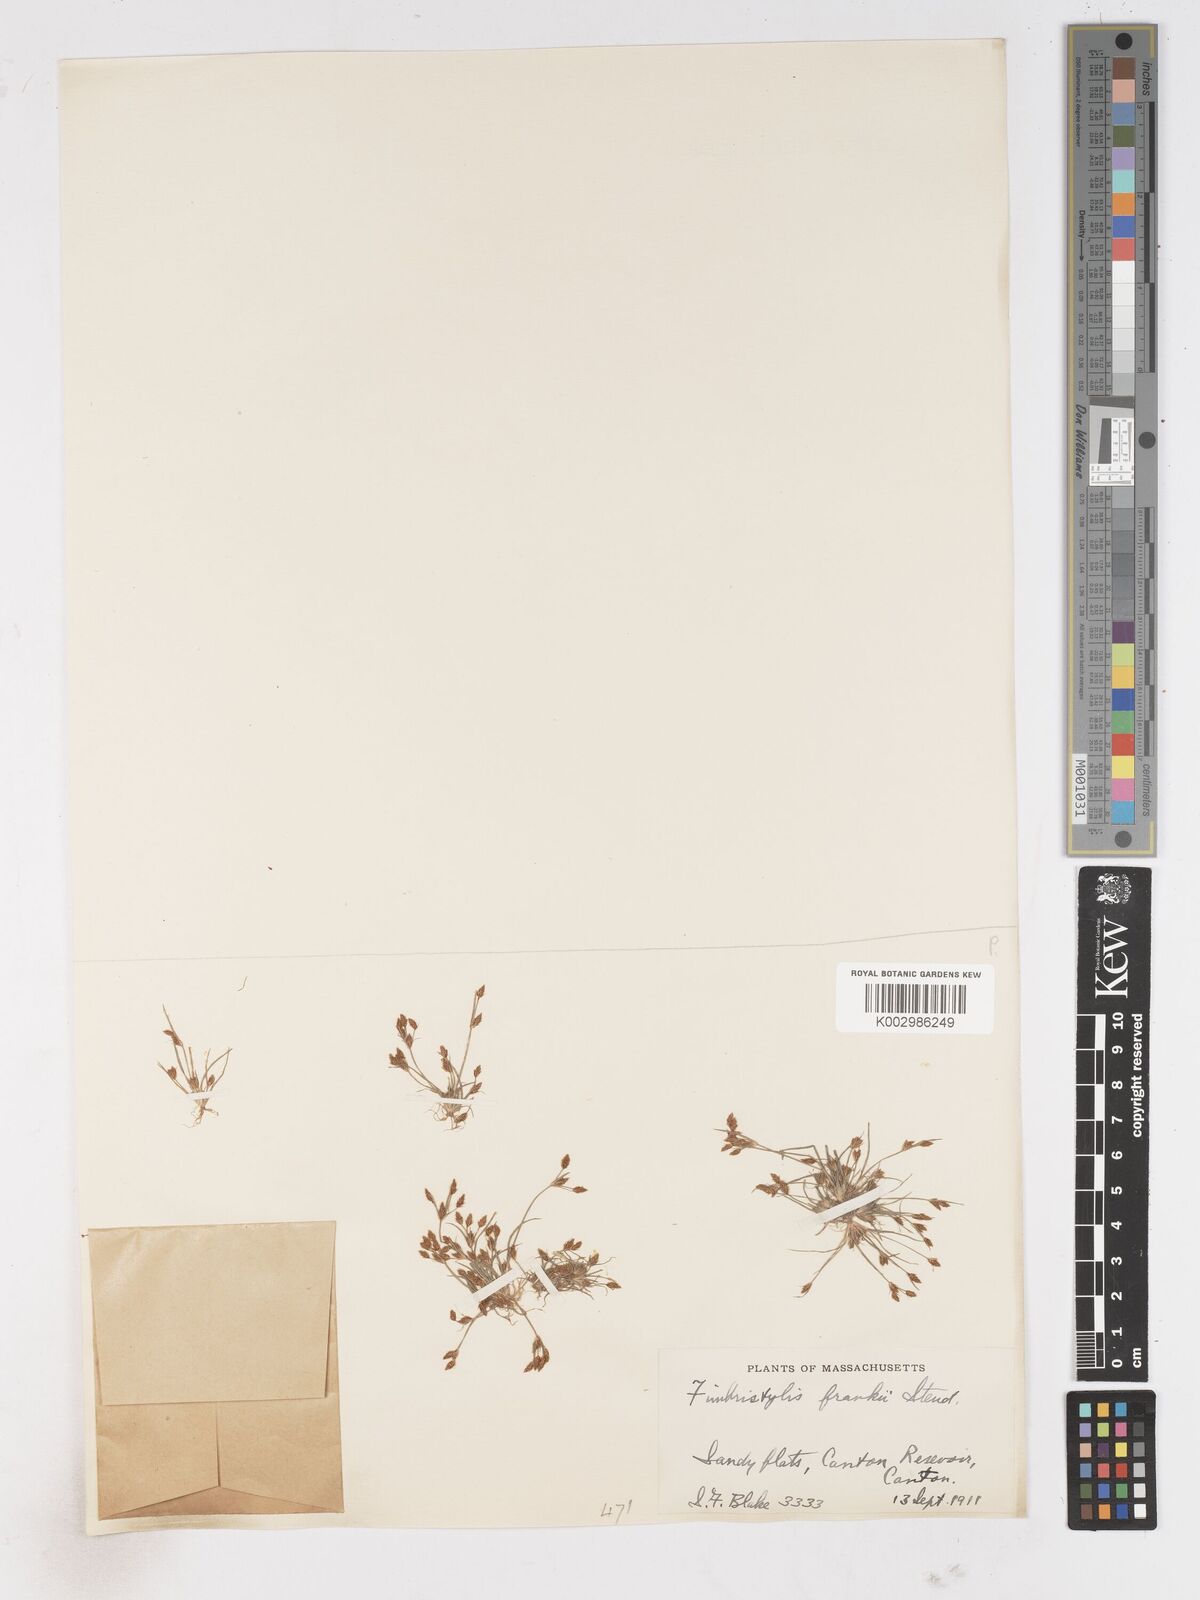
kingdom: Plantae
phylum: Tracheophyta
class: Liliopsida
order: Poales
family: Cyperaceae
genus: Fimbristylis
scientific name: Fimbristylis autumnalis
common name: Slender fimbristylis
